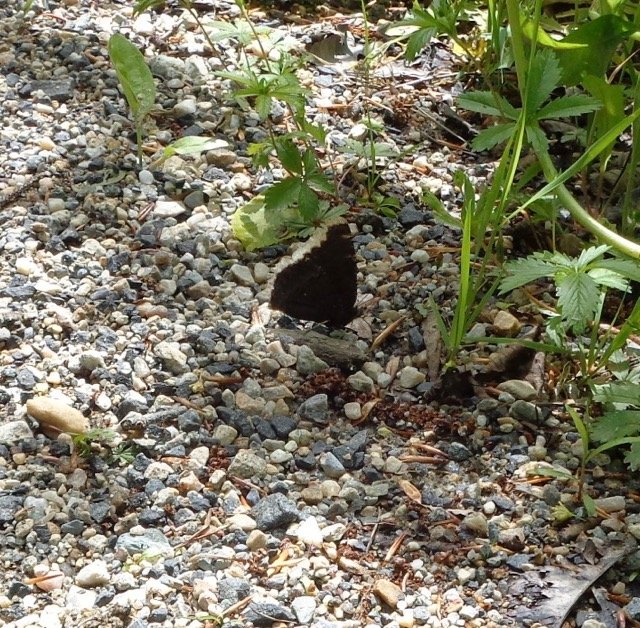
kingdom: Animalia
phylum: Arthropoda
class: Insecta
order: Lepidoptera
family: Nymphalidae
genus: Nymphalis
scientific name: Nymphalis antiopa
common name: Mourning Cloak
